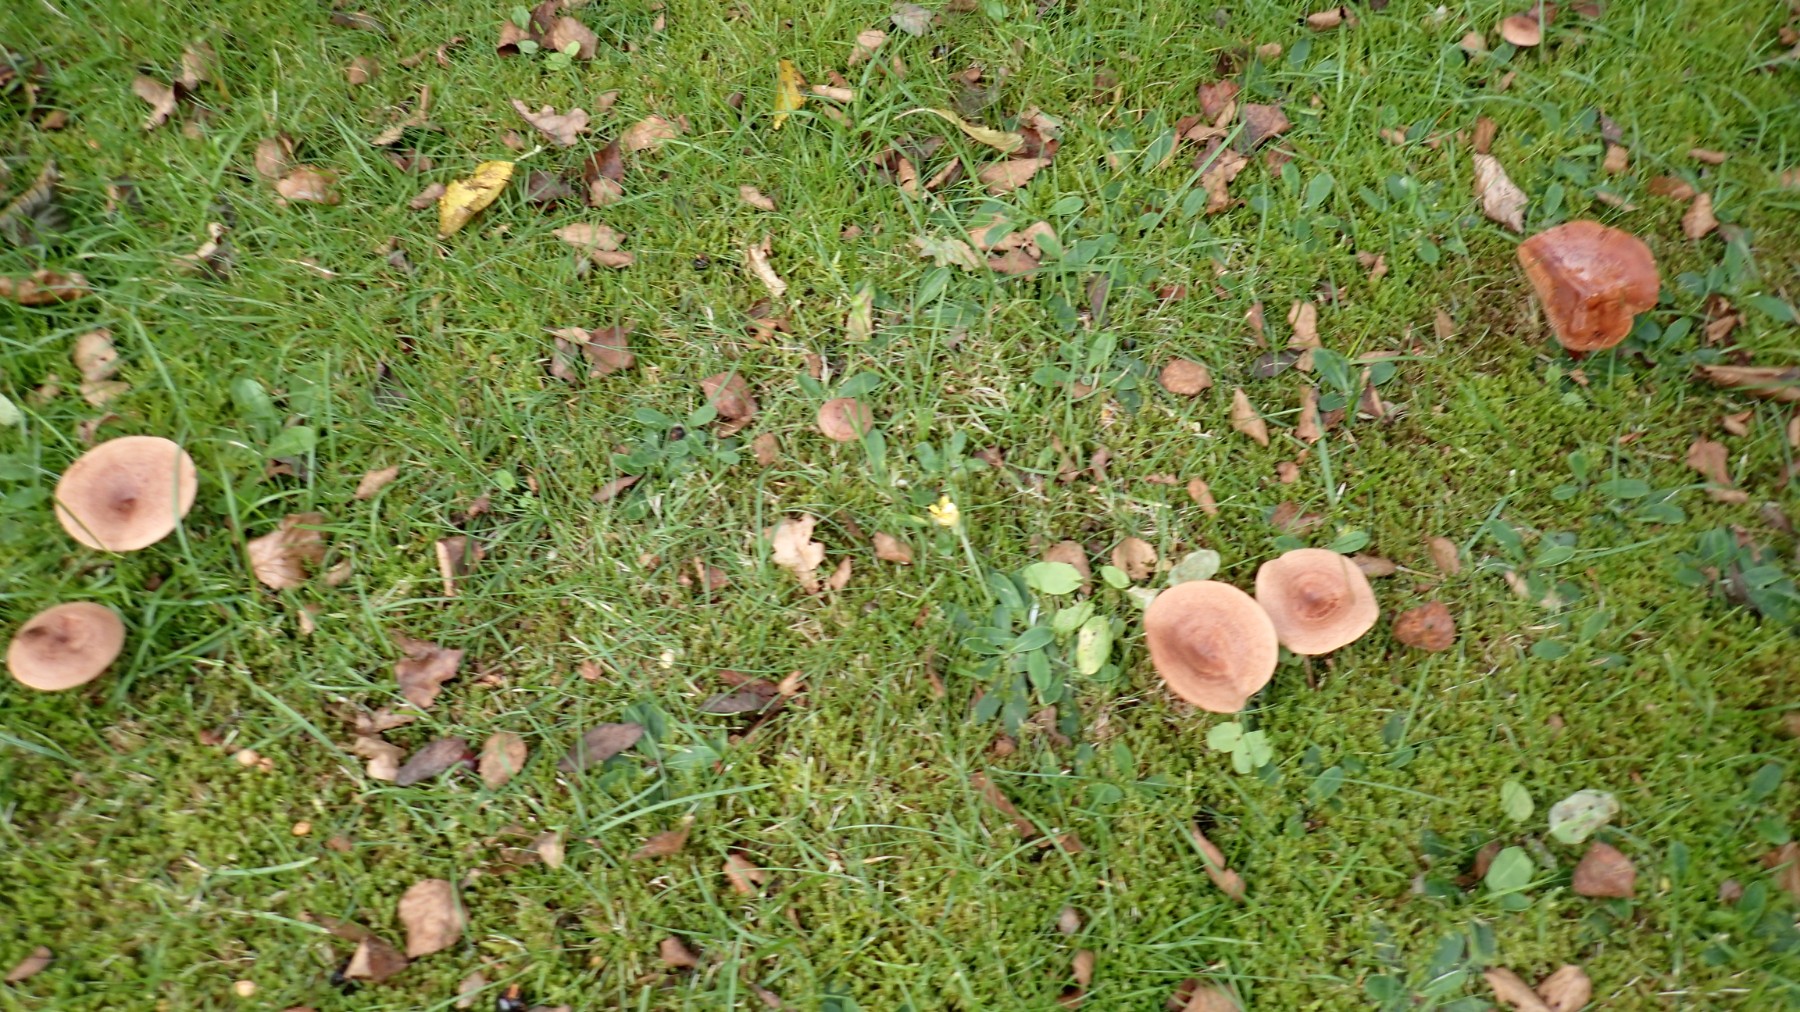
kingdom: Fungi
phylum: Basidiomycota
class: Agaricomycetes
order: Russulales
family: Russulaceae
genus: Lactarius
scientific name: Lactarius quietus
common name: ege-mælkehat
